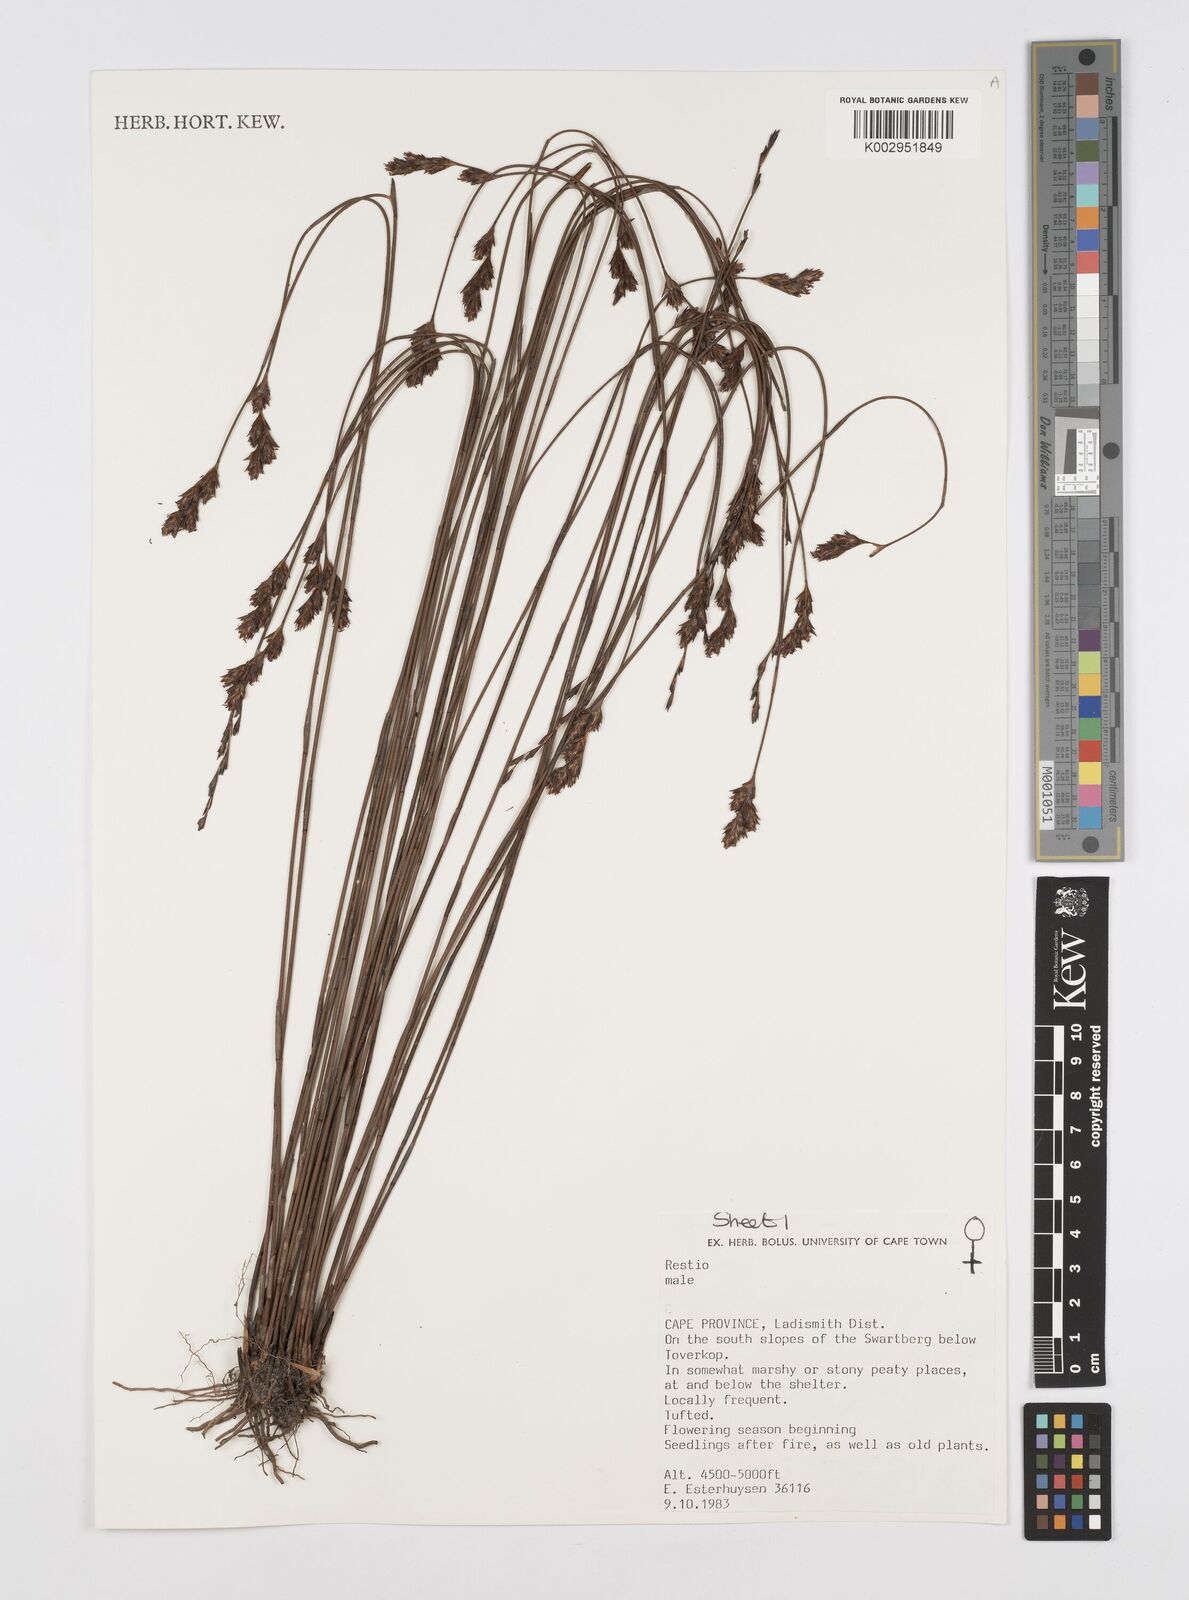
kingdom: Plantae
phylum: Tracheophyta
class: Liliopsida
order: Poales
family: Restionaceae
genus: Restio
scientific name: Restio
